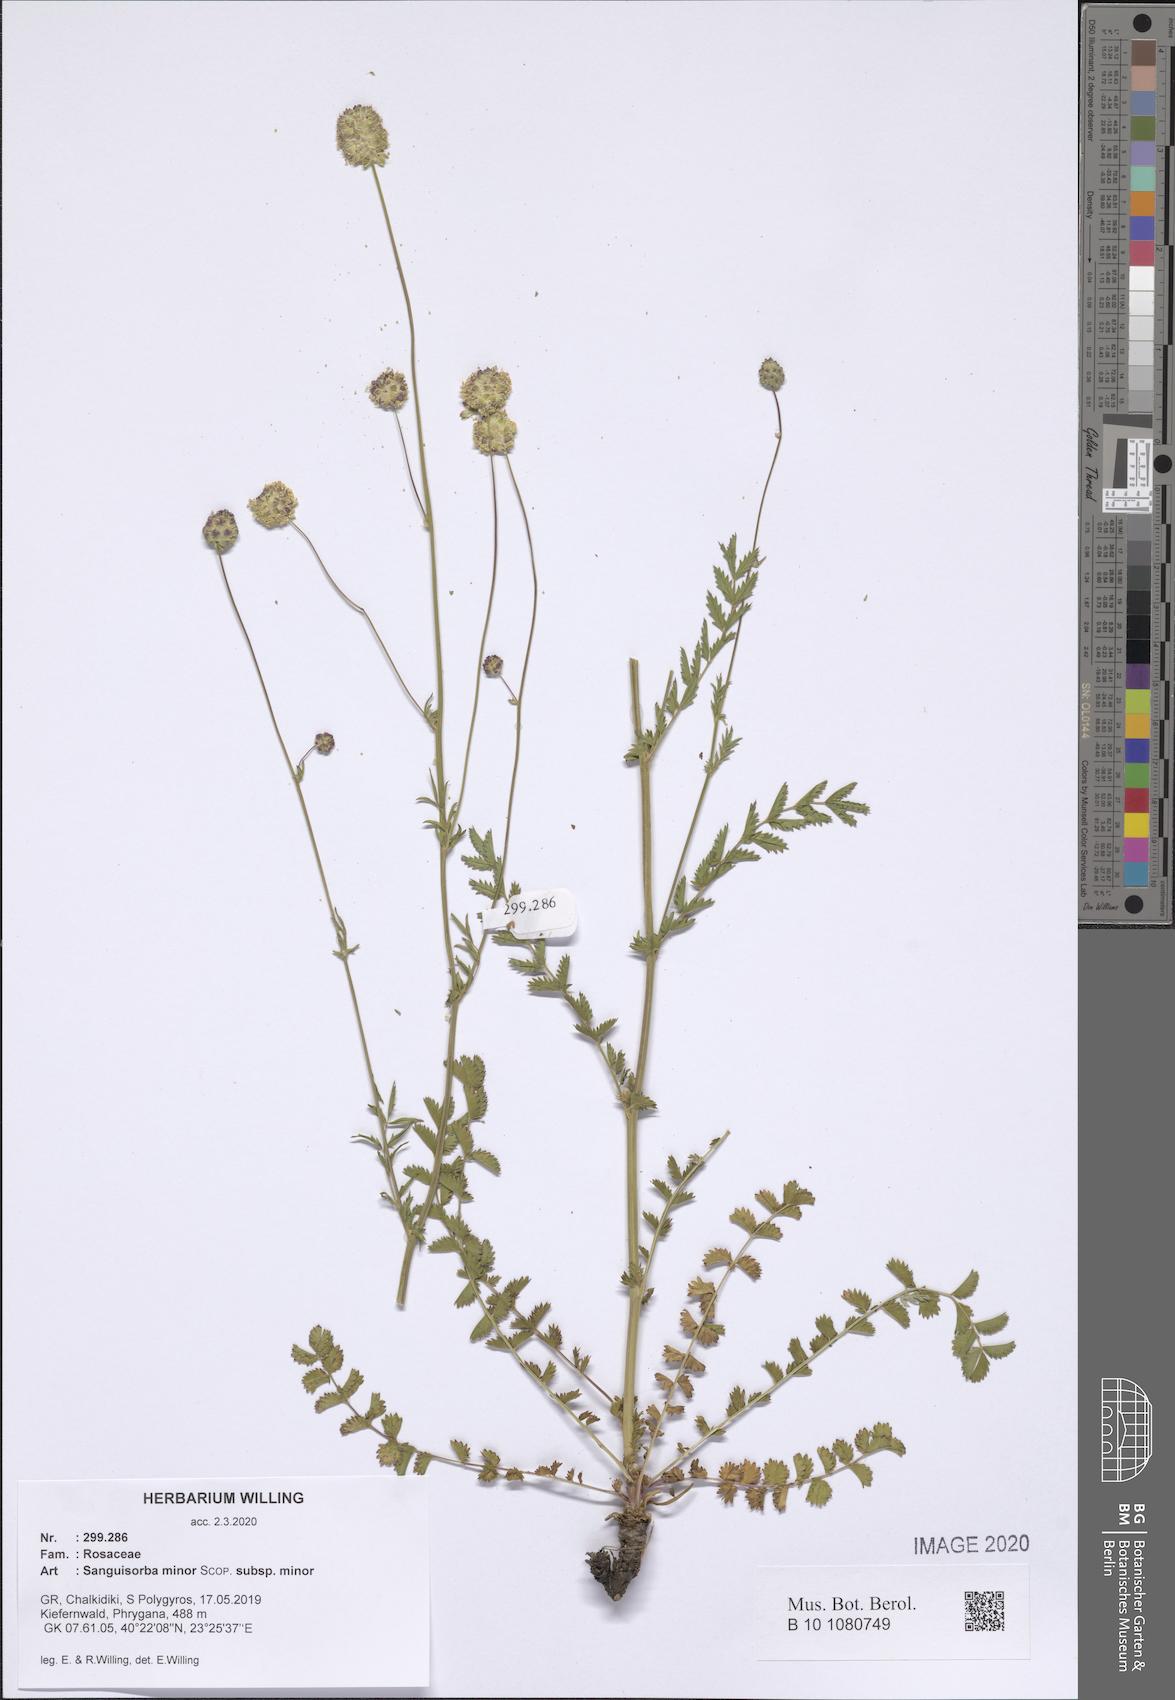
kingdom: Plantae
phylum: Tracheophyta
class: Magnoliopsida
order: Rosales
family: Rosaceae
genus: Poterium
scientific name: Poterium sanguisorba
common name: Salad burnet
